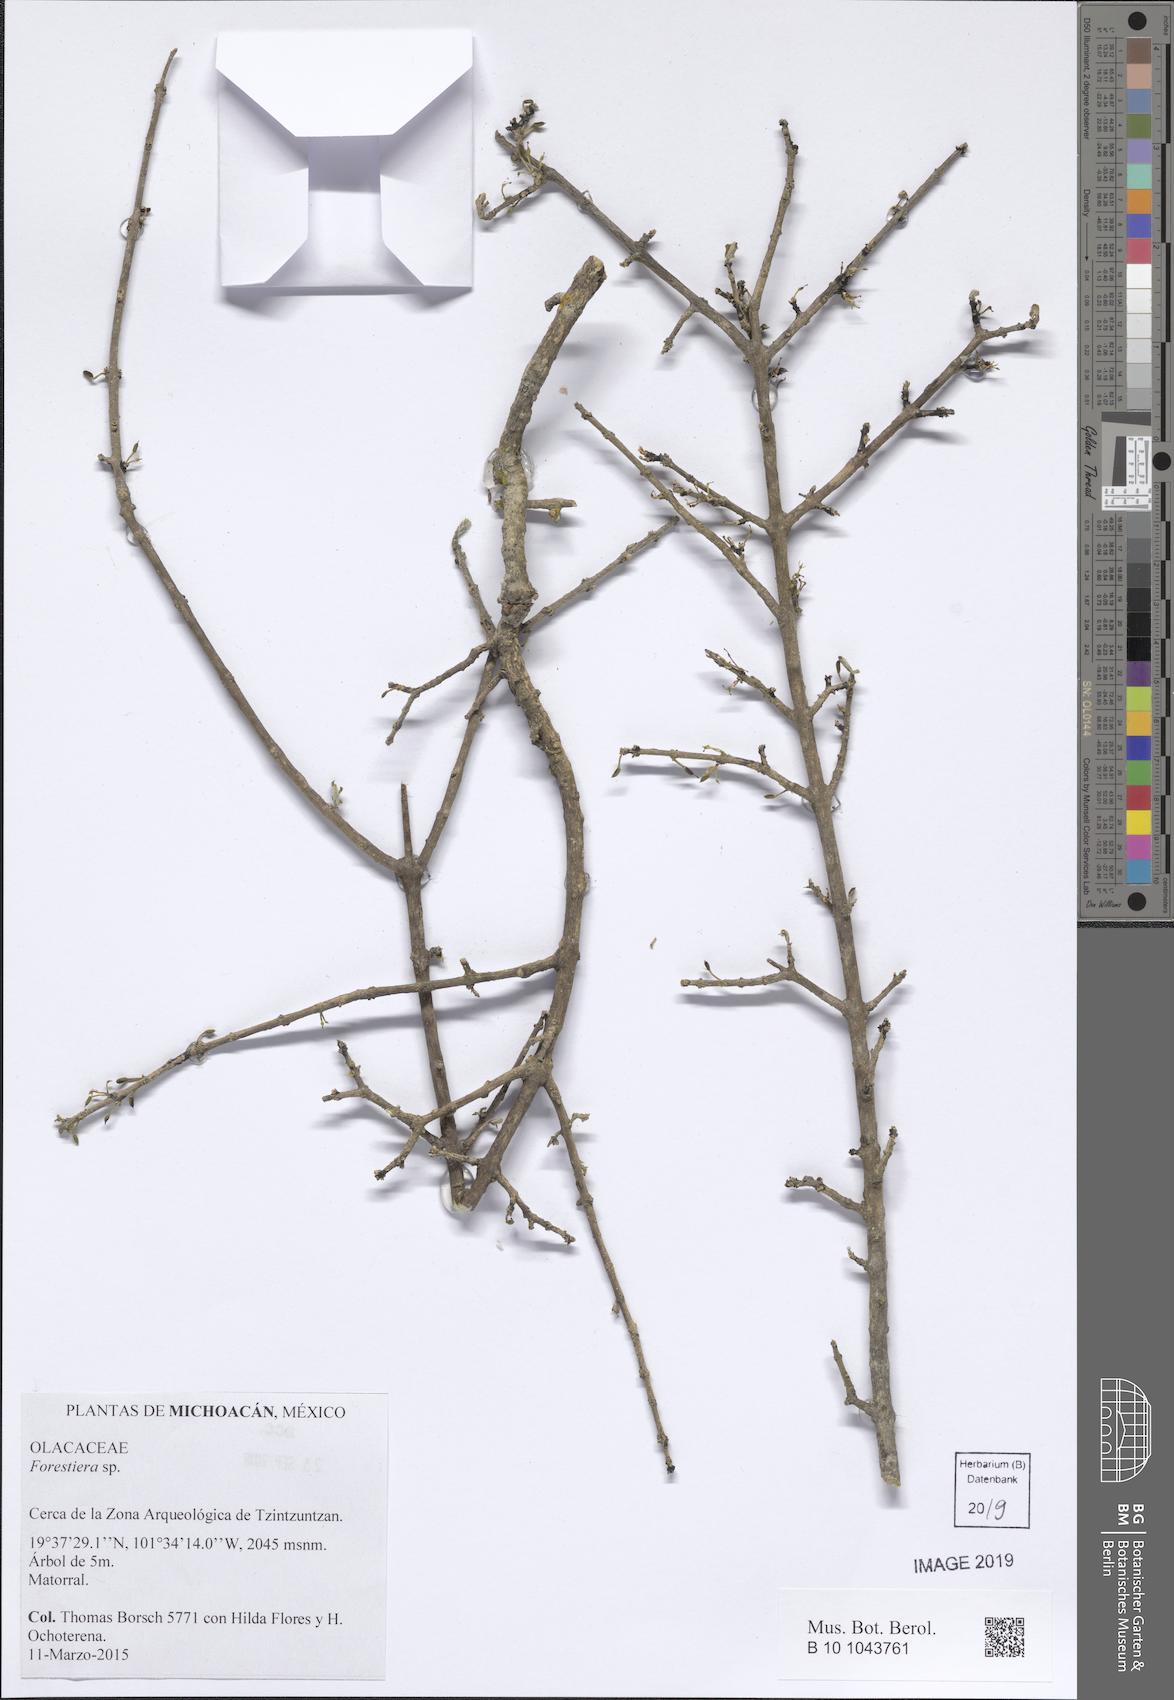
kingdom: Plantae
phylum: Tracheophyta
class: Magnoliopsida
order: Lamiales
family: Oleaceae
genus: Forestiera
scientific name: Forestiera
